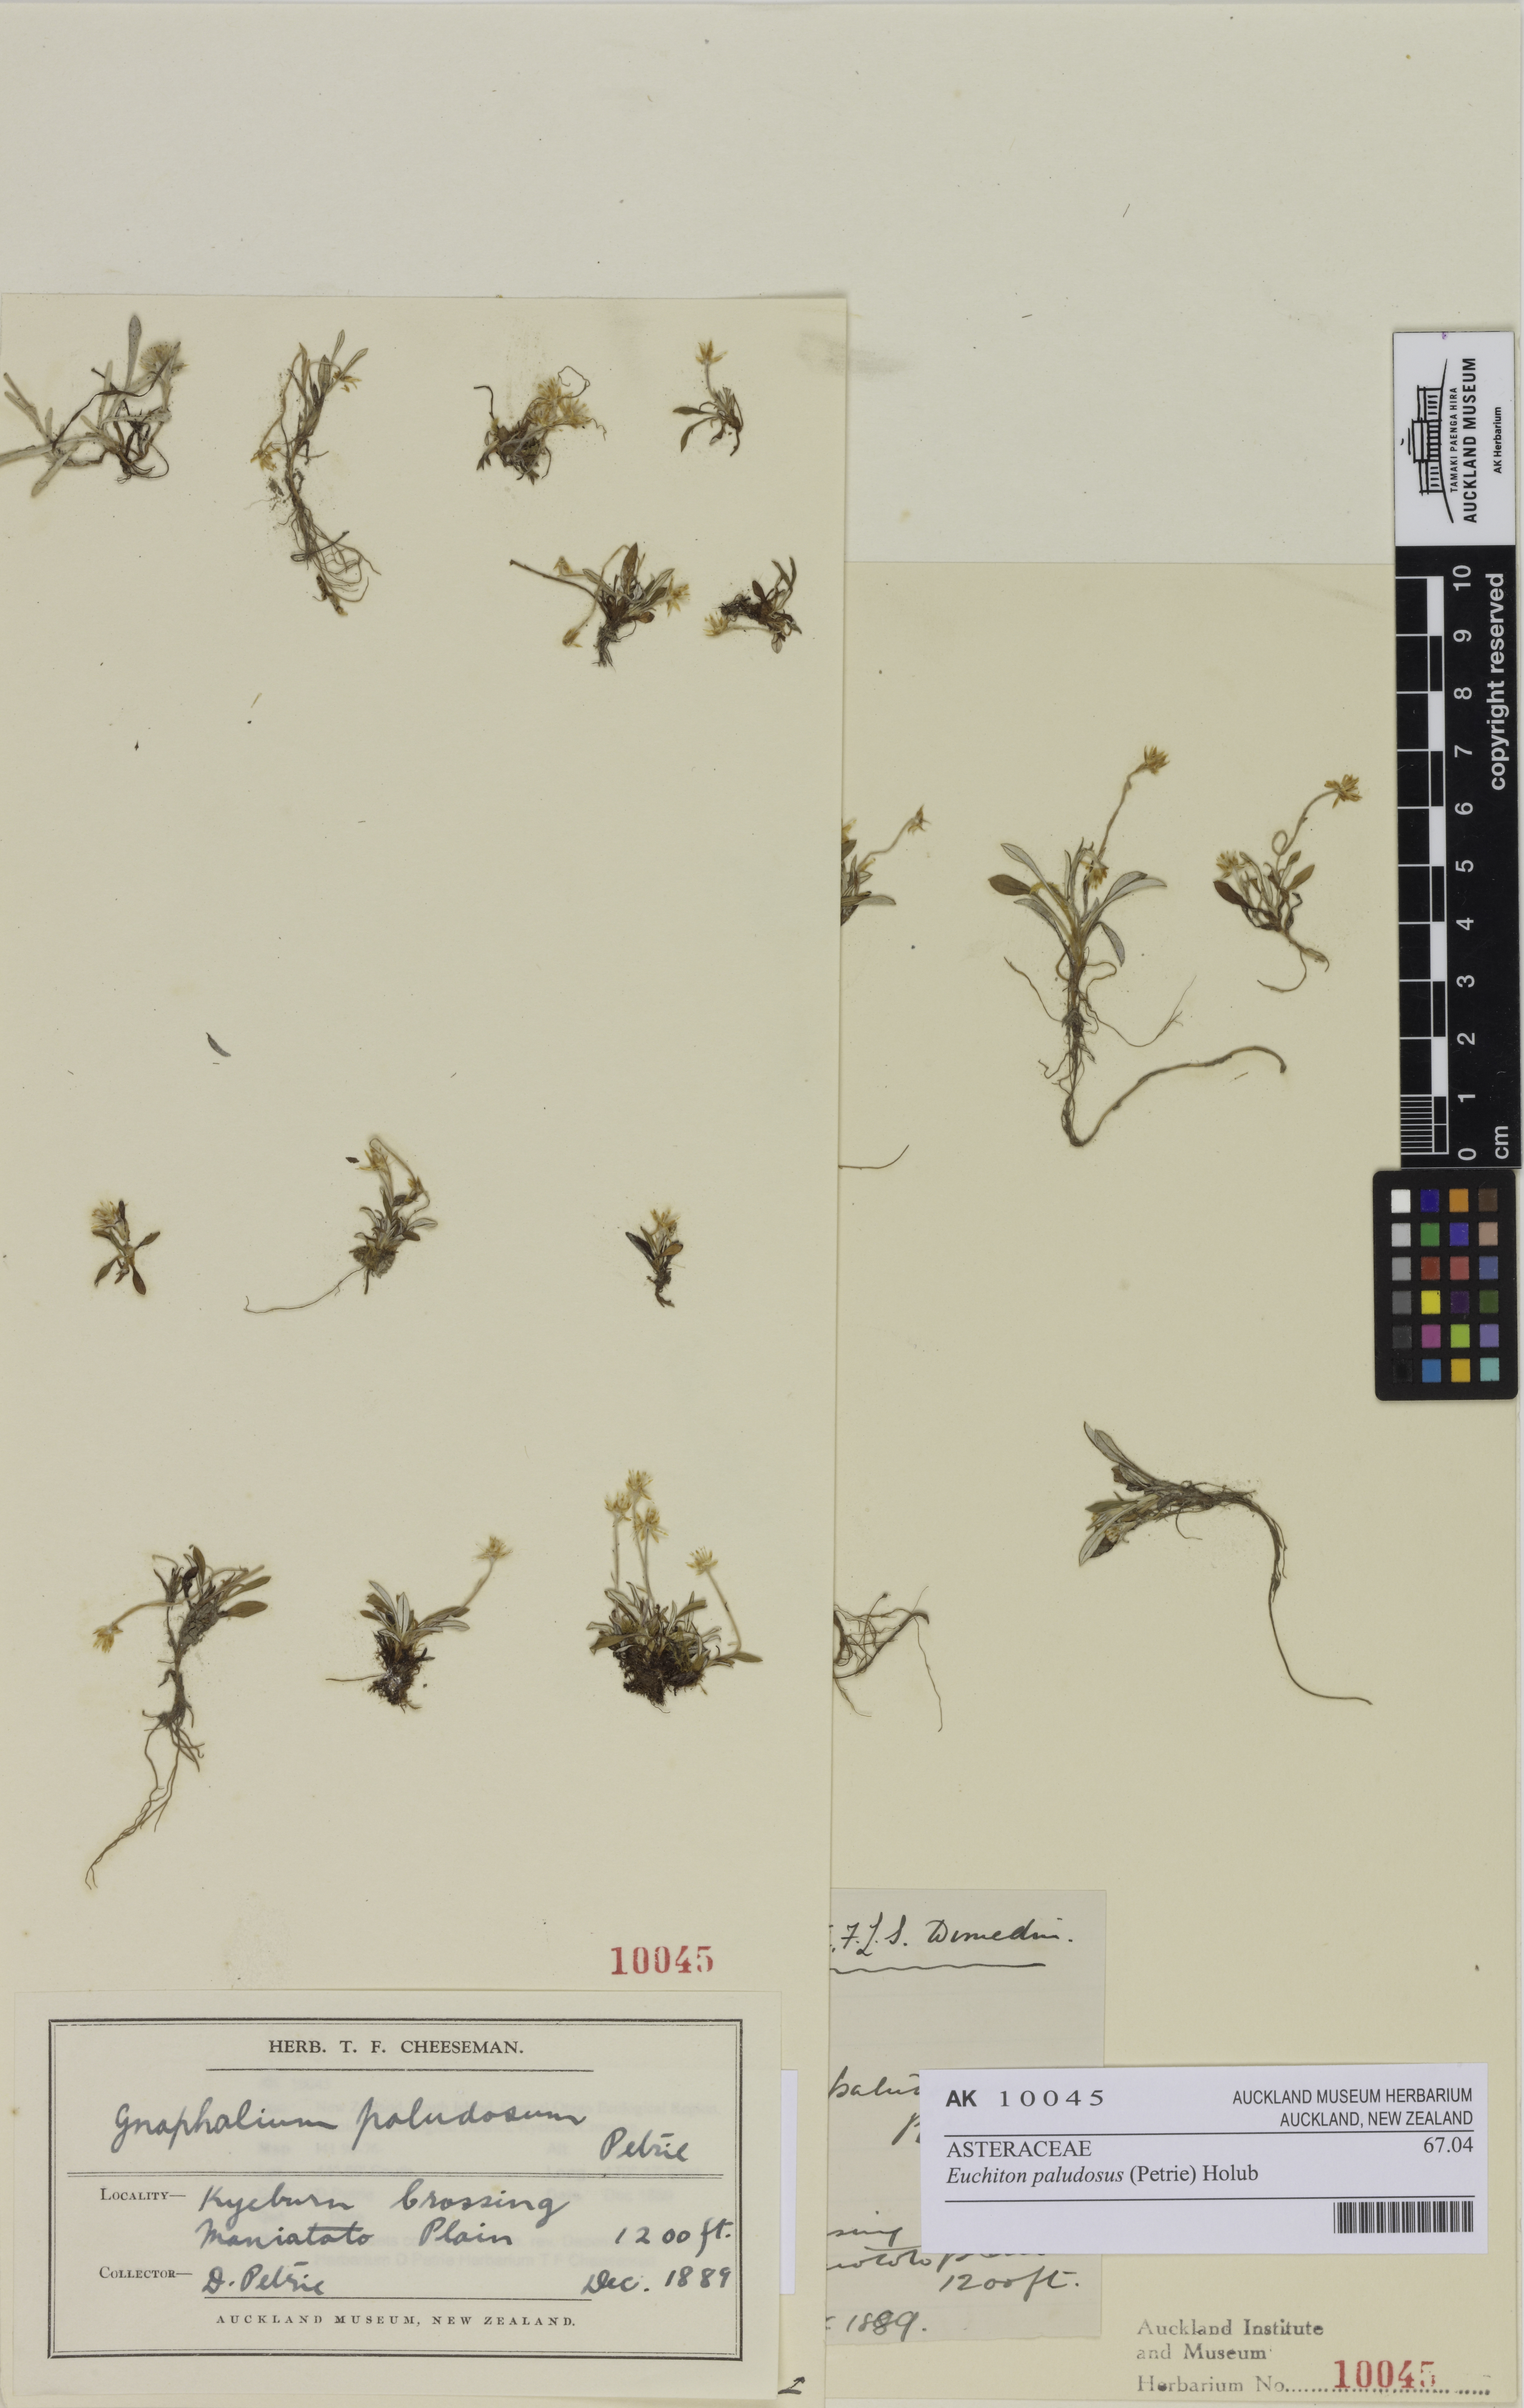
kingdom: Plantae
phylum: Tracheophyta
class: Magnoliopsida
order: Asterales
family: Asteraceae
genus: Euchiton
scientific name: Euchiton paludosus
